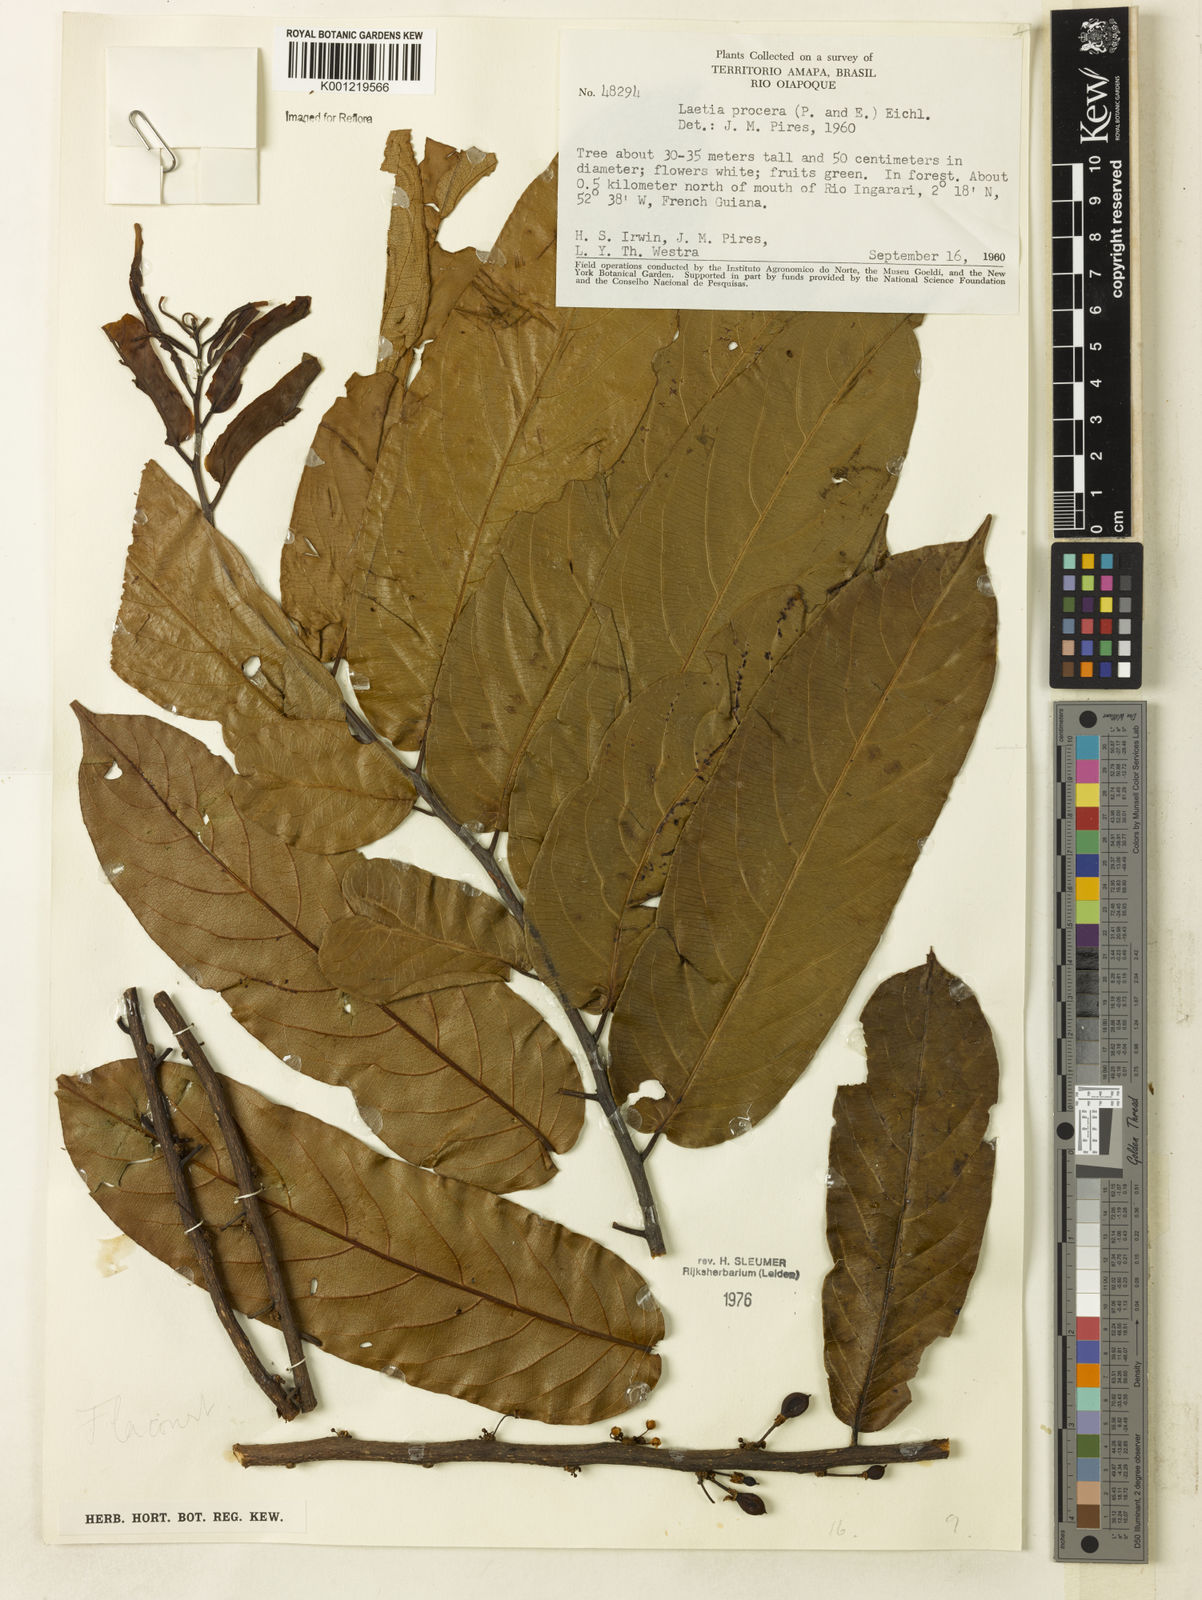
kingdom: Plantae
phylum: Tracheophyta
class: Magnoliopsida
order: Malpighiales
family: Salicaceae
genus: Casearia
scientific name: Casearia bicolor
